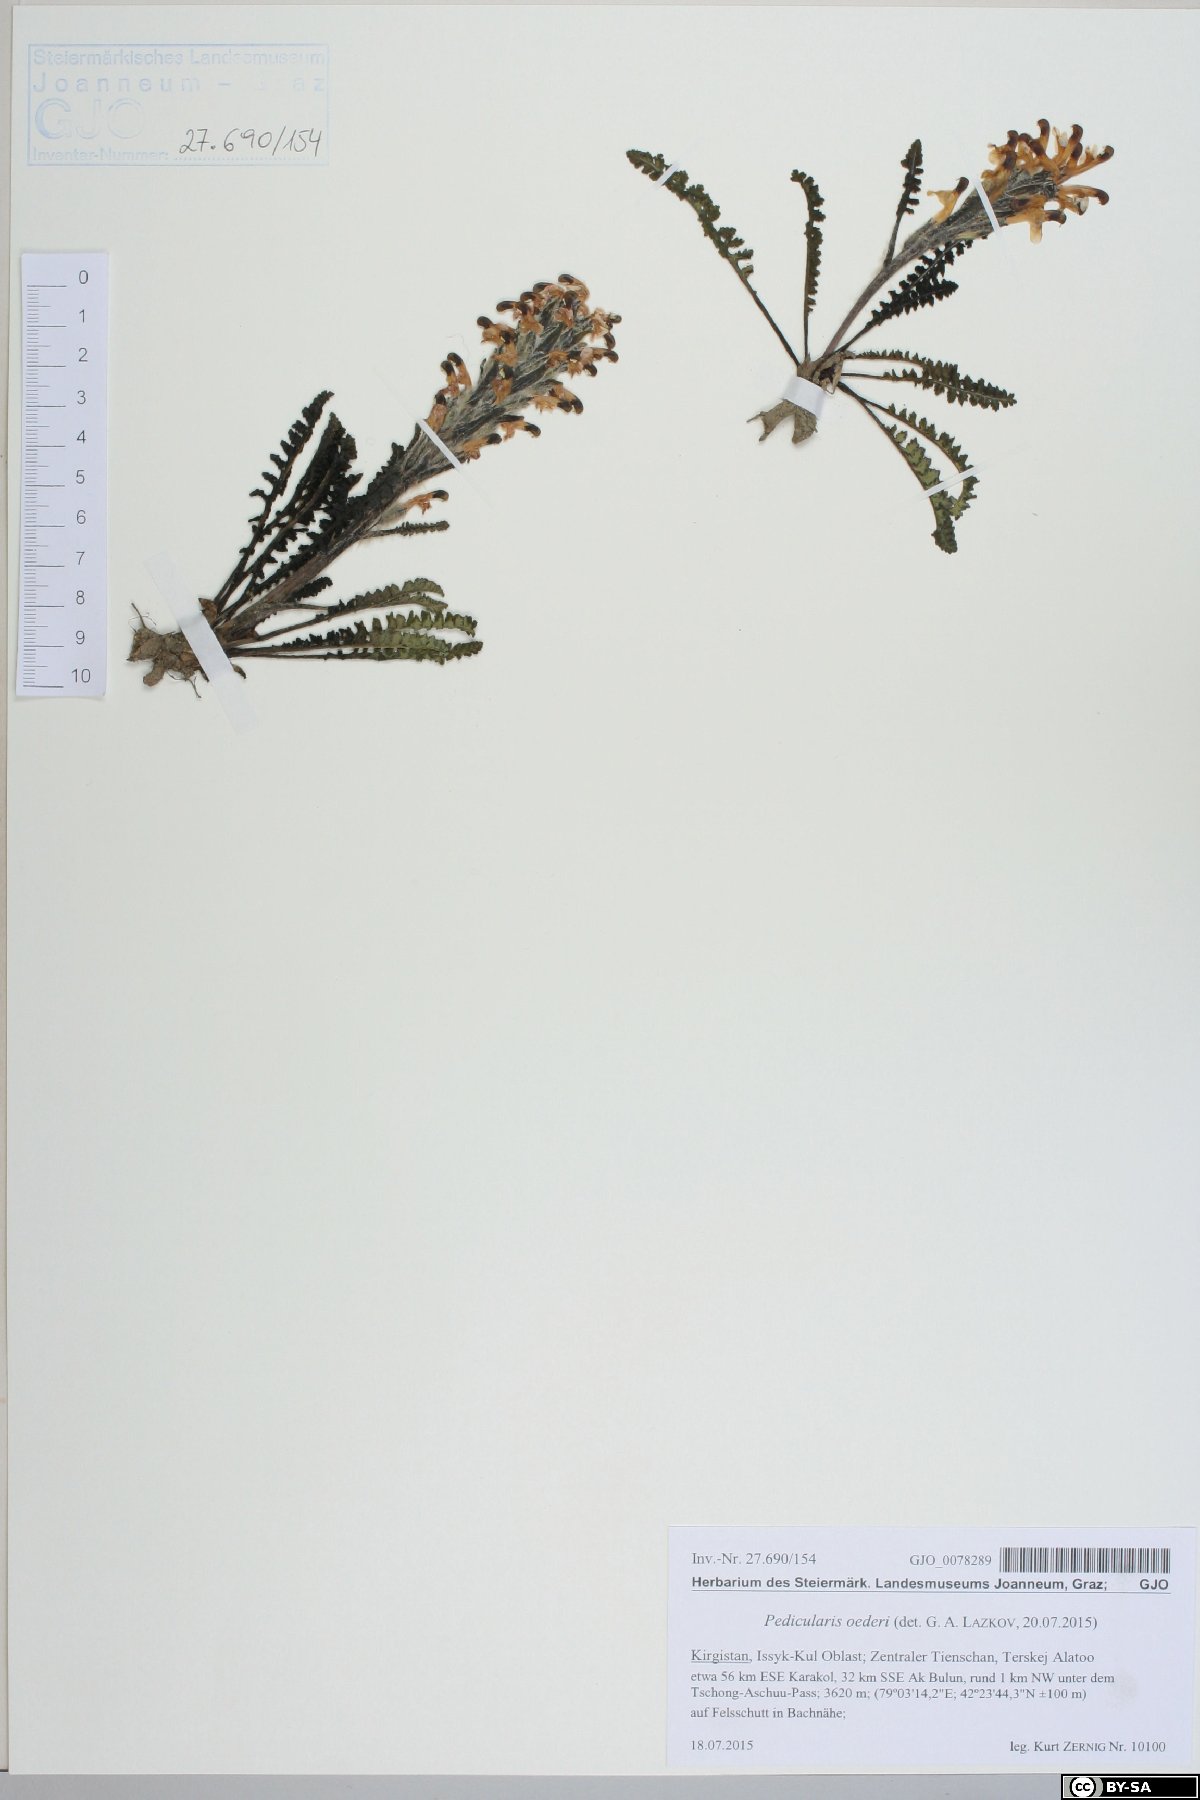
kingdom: Plantae
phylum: Tracheophyta
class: Magnoliopsida
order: Lamiales
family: Orobanchaceae
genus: Pedicularis
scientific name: Pedicularis oederi
